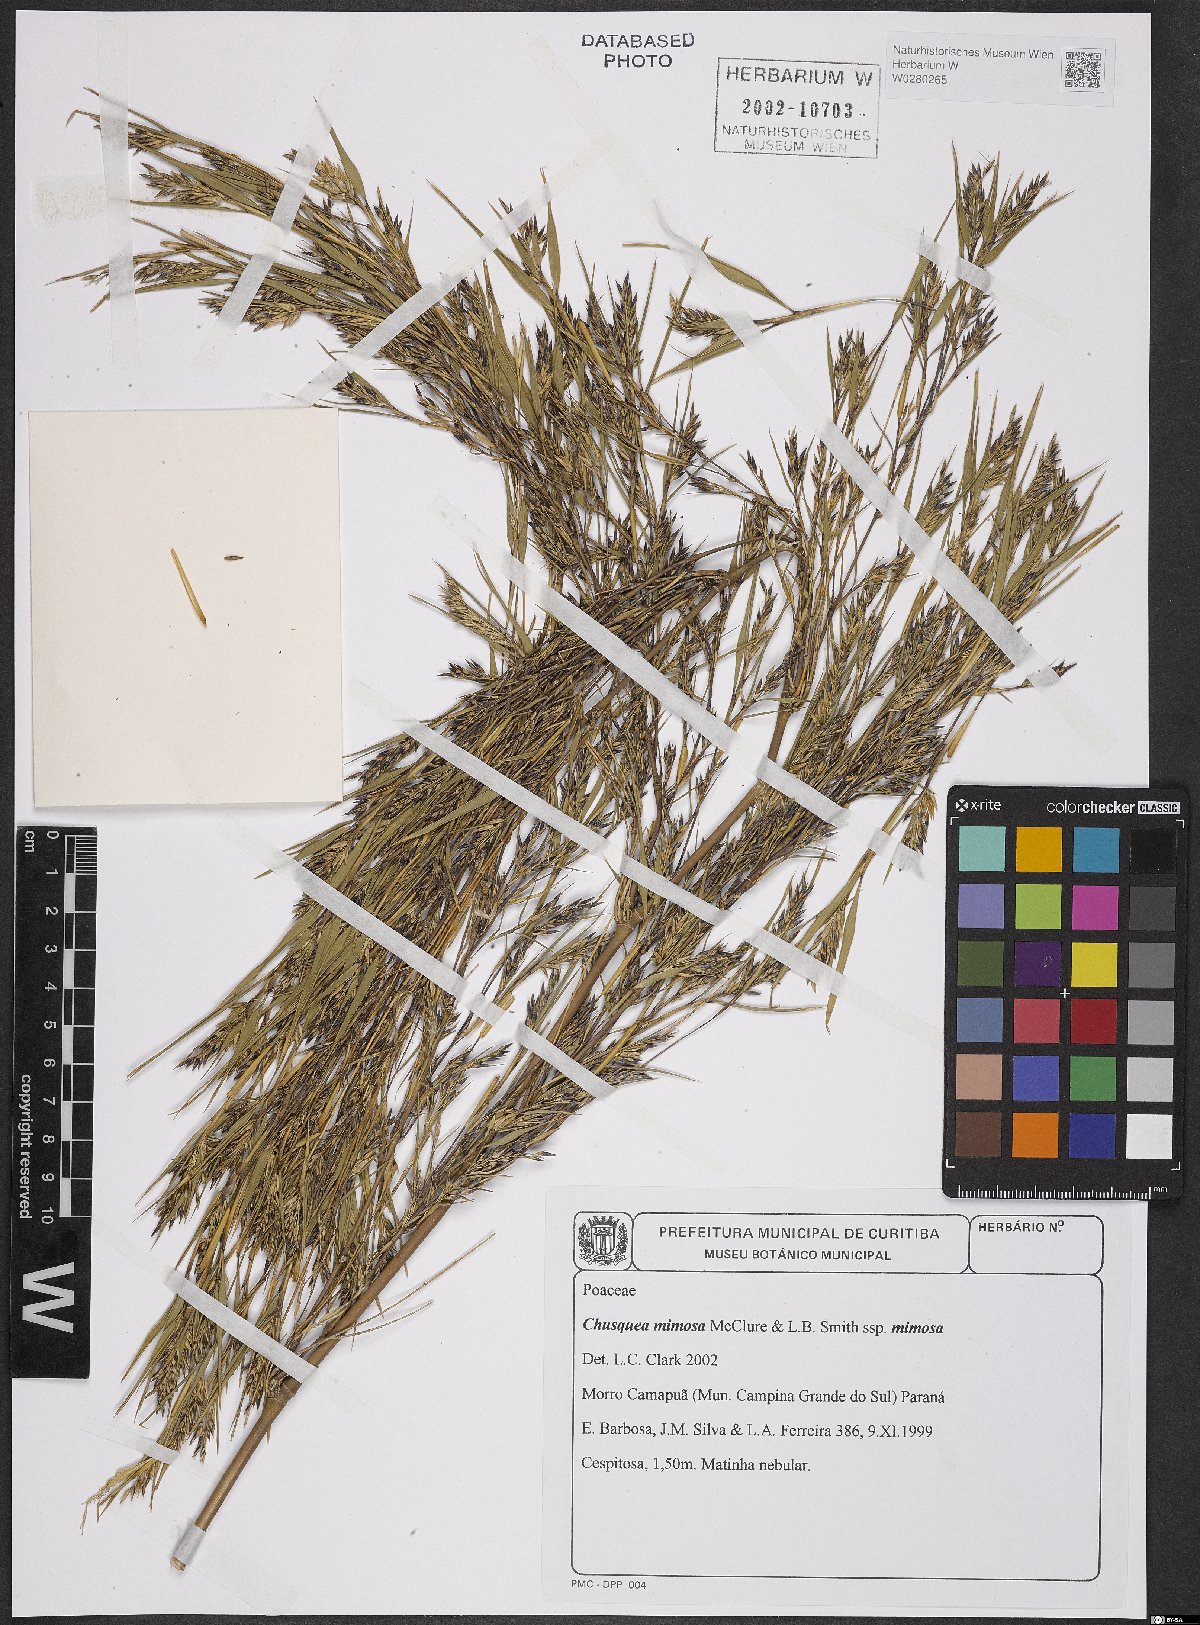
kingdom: Plantae
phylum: Tracheophyta
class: Liliopsida
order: Poales
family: Poaceae
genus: Chusquea
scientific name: Chusquea mimosa
